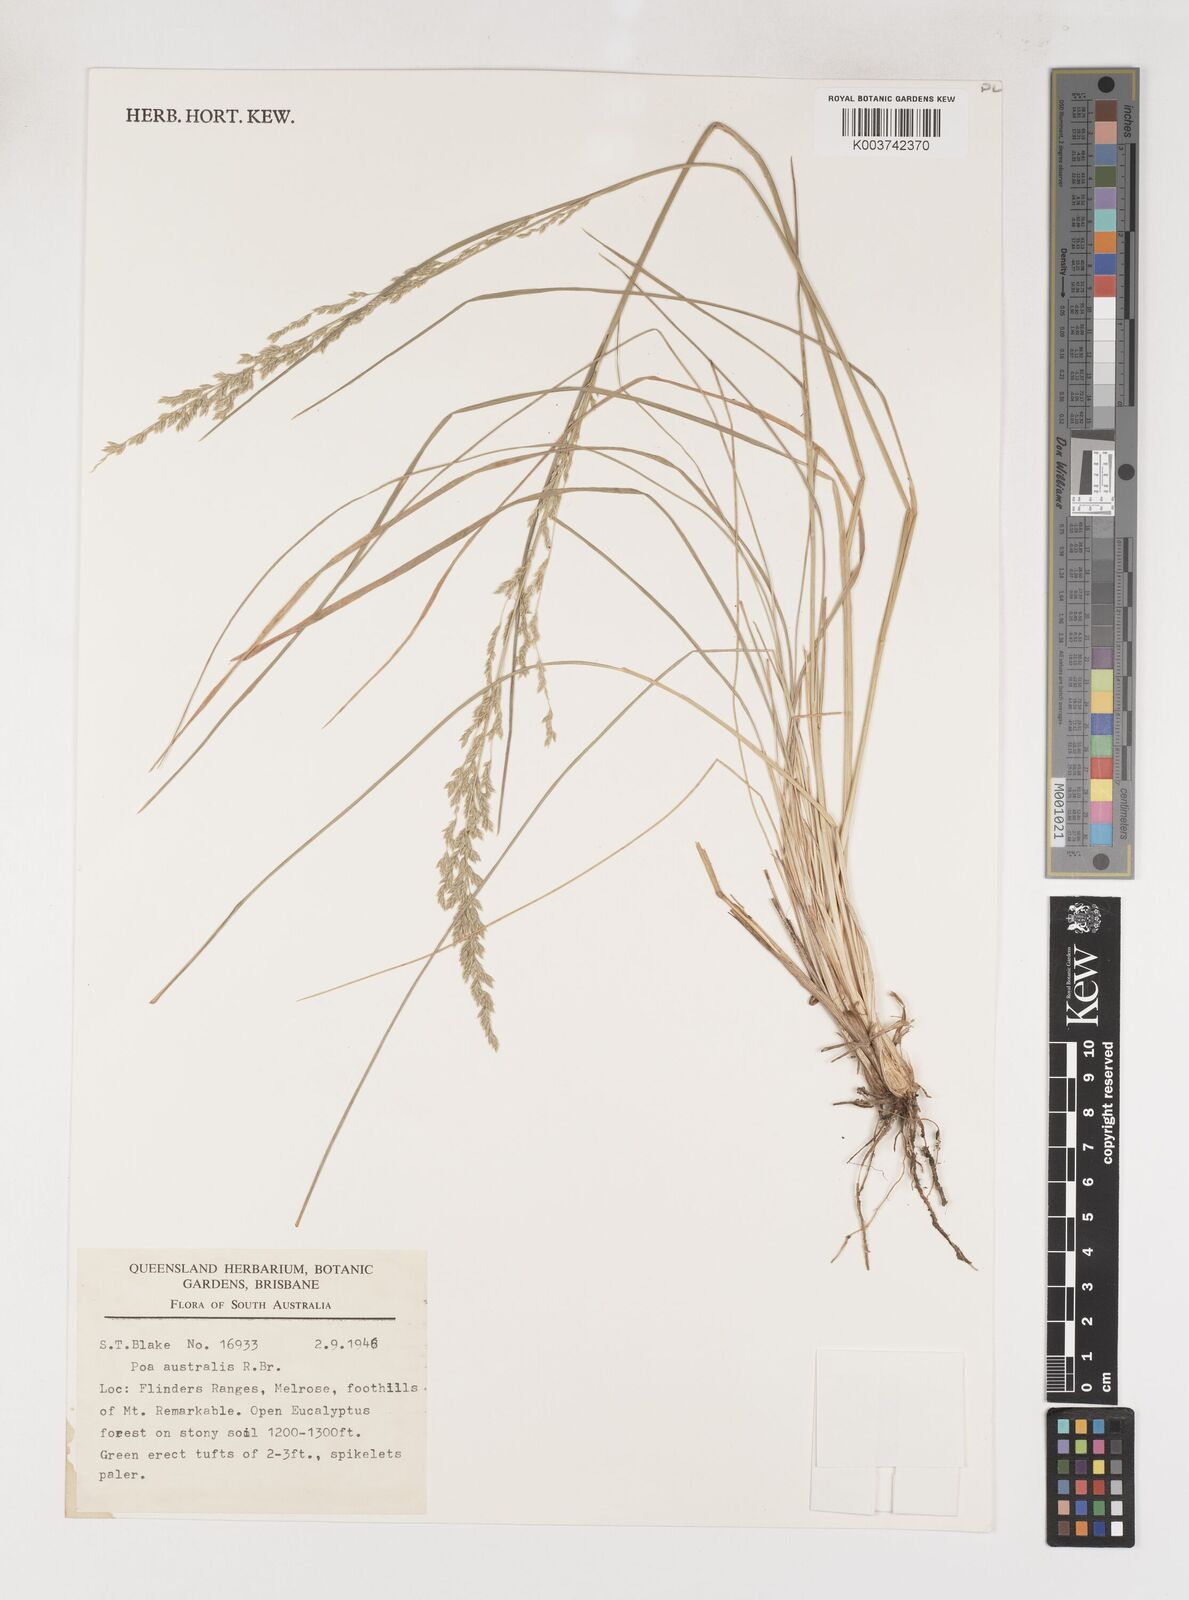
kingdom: Plantae
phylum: Tracheophyta
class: Liliopsida
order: Poales
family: Poaceae
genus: Poa
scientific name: Poa poiformis
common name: Tussock poa
